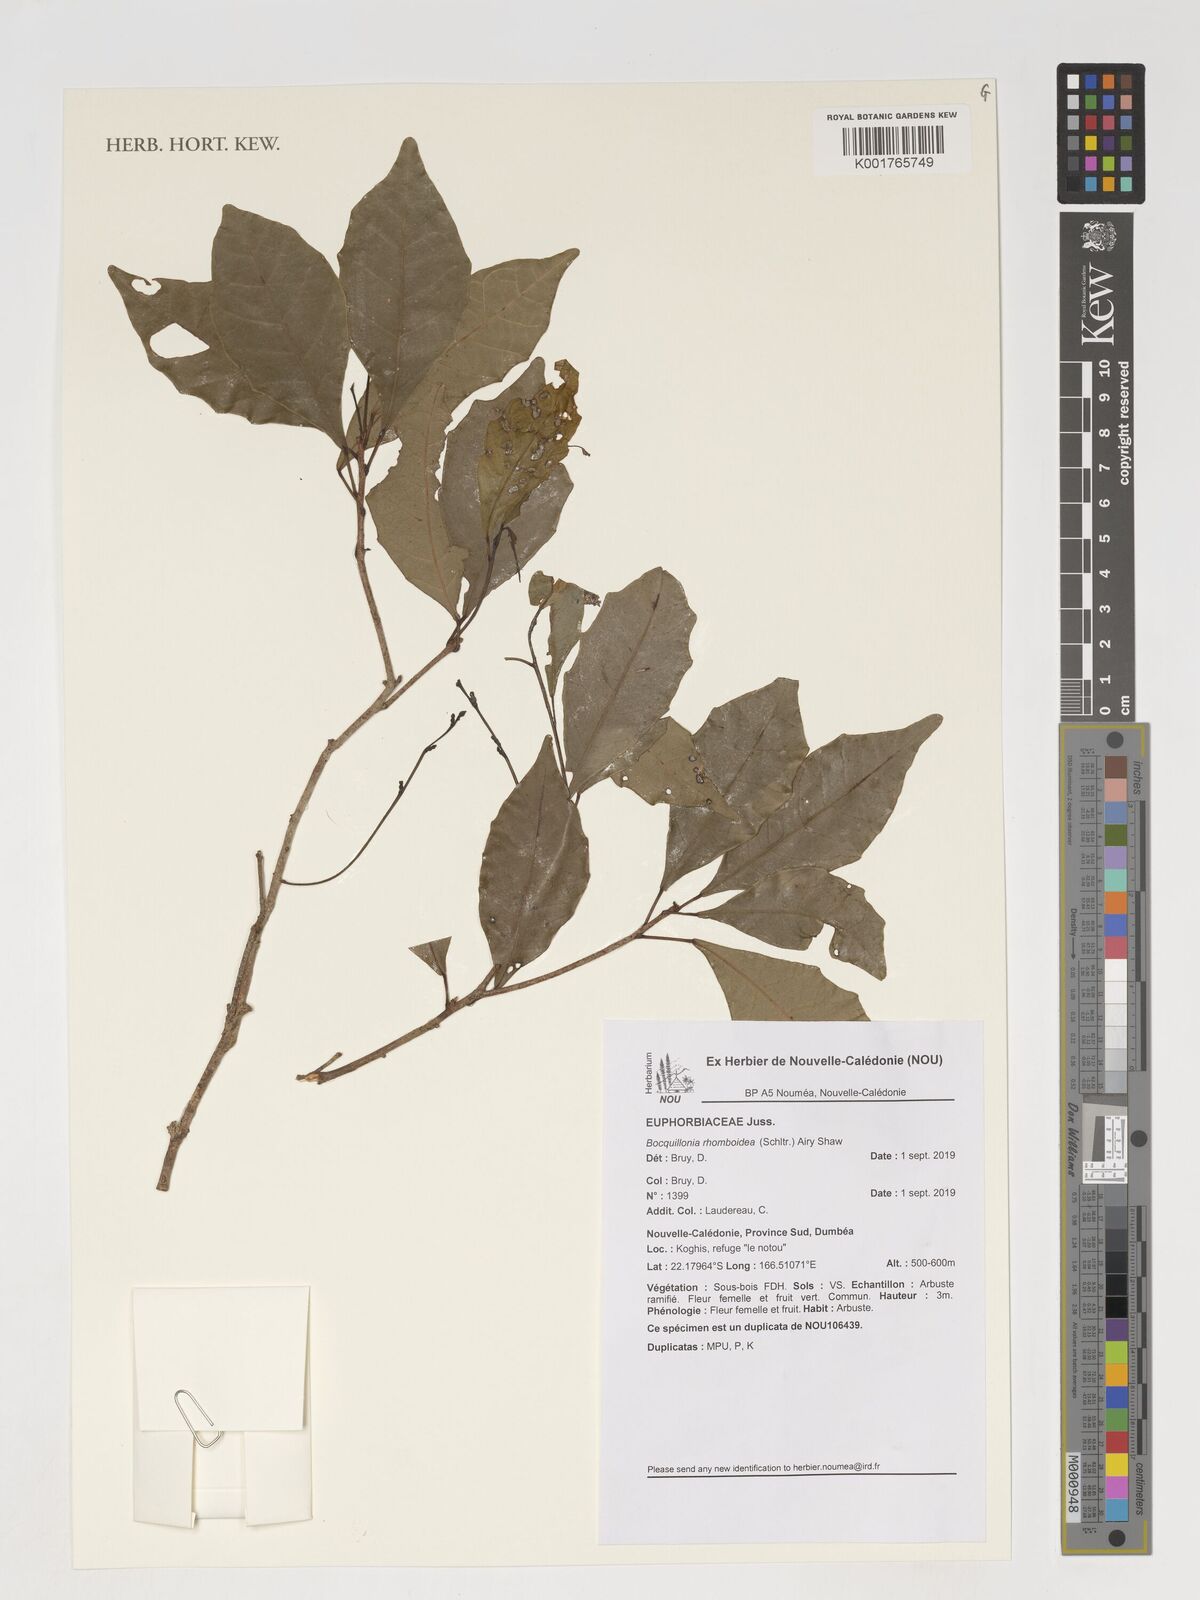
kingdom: Plantae
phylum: Tracheophyta
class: Magnoliopsida
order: Malpighiales
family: Euphorbiaceae
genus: Bocquillonia
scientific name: Bocquillonia rhomboidea
